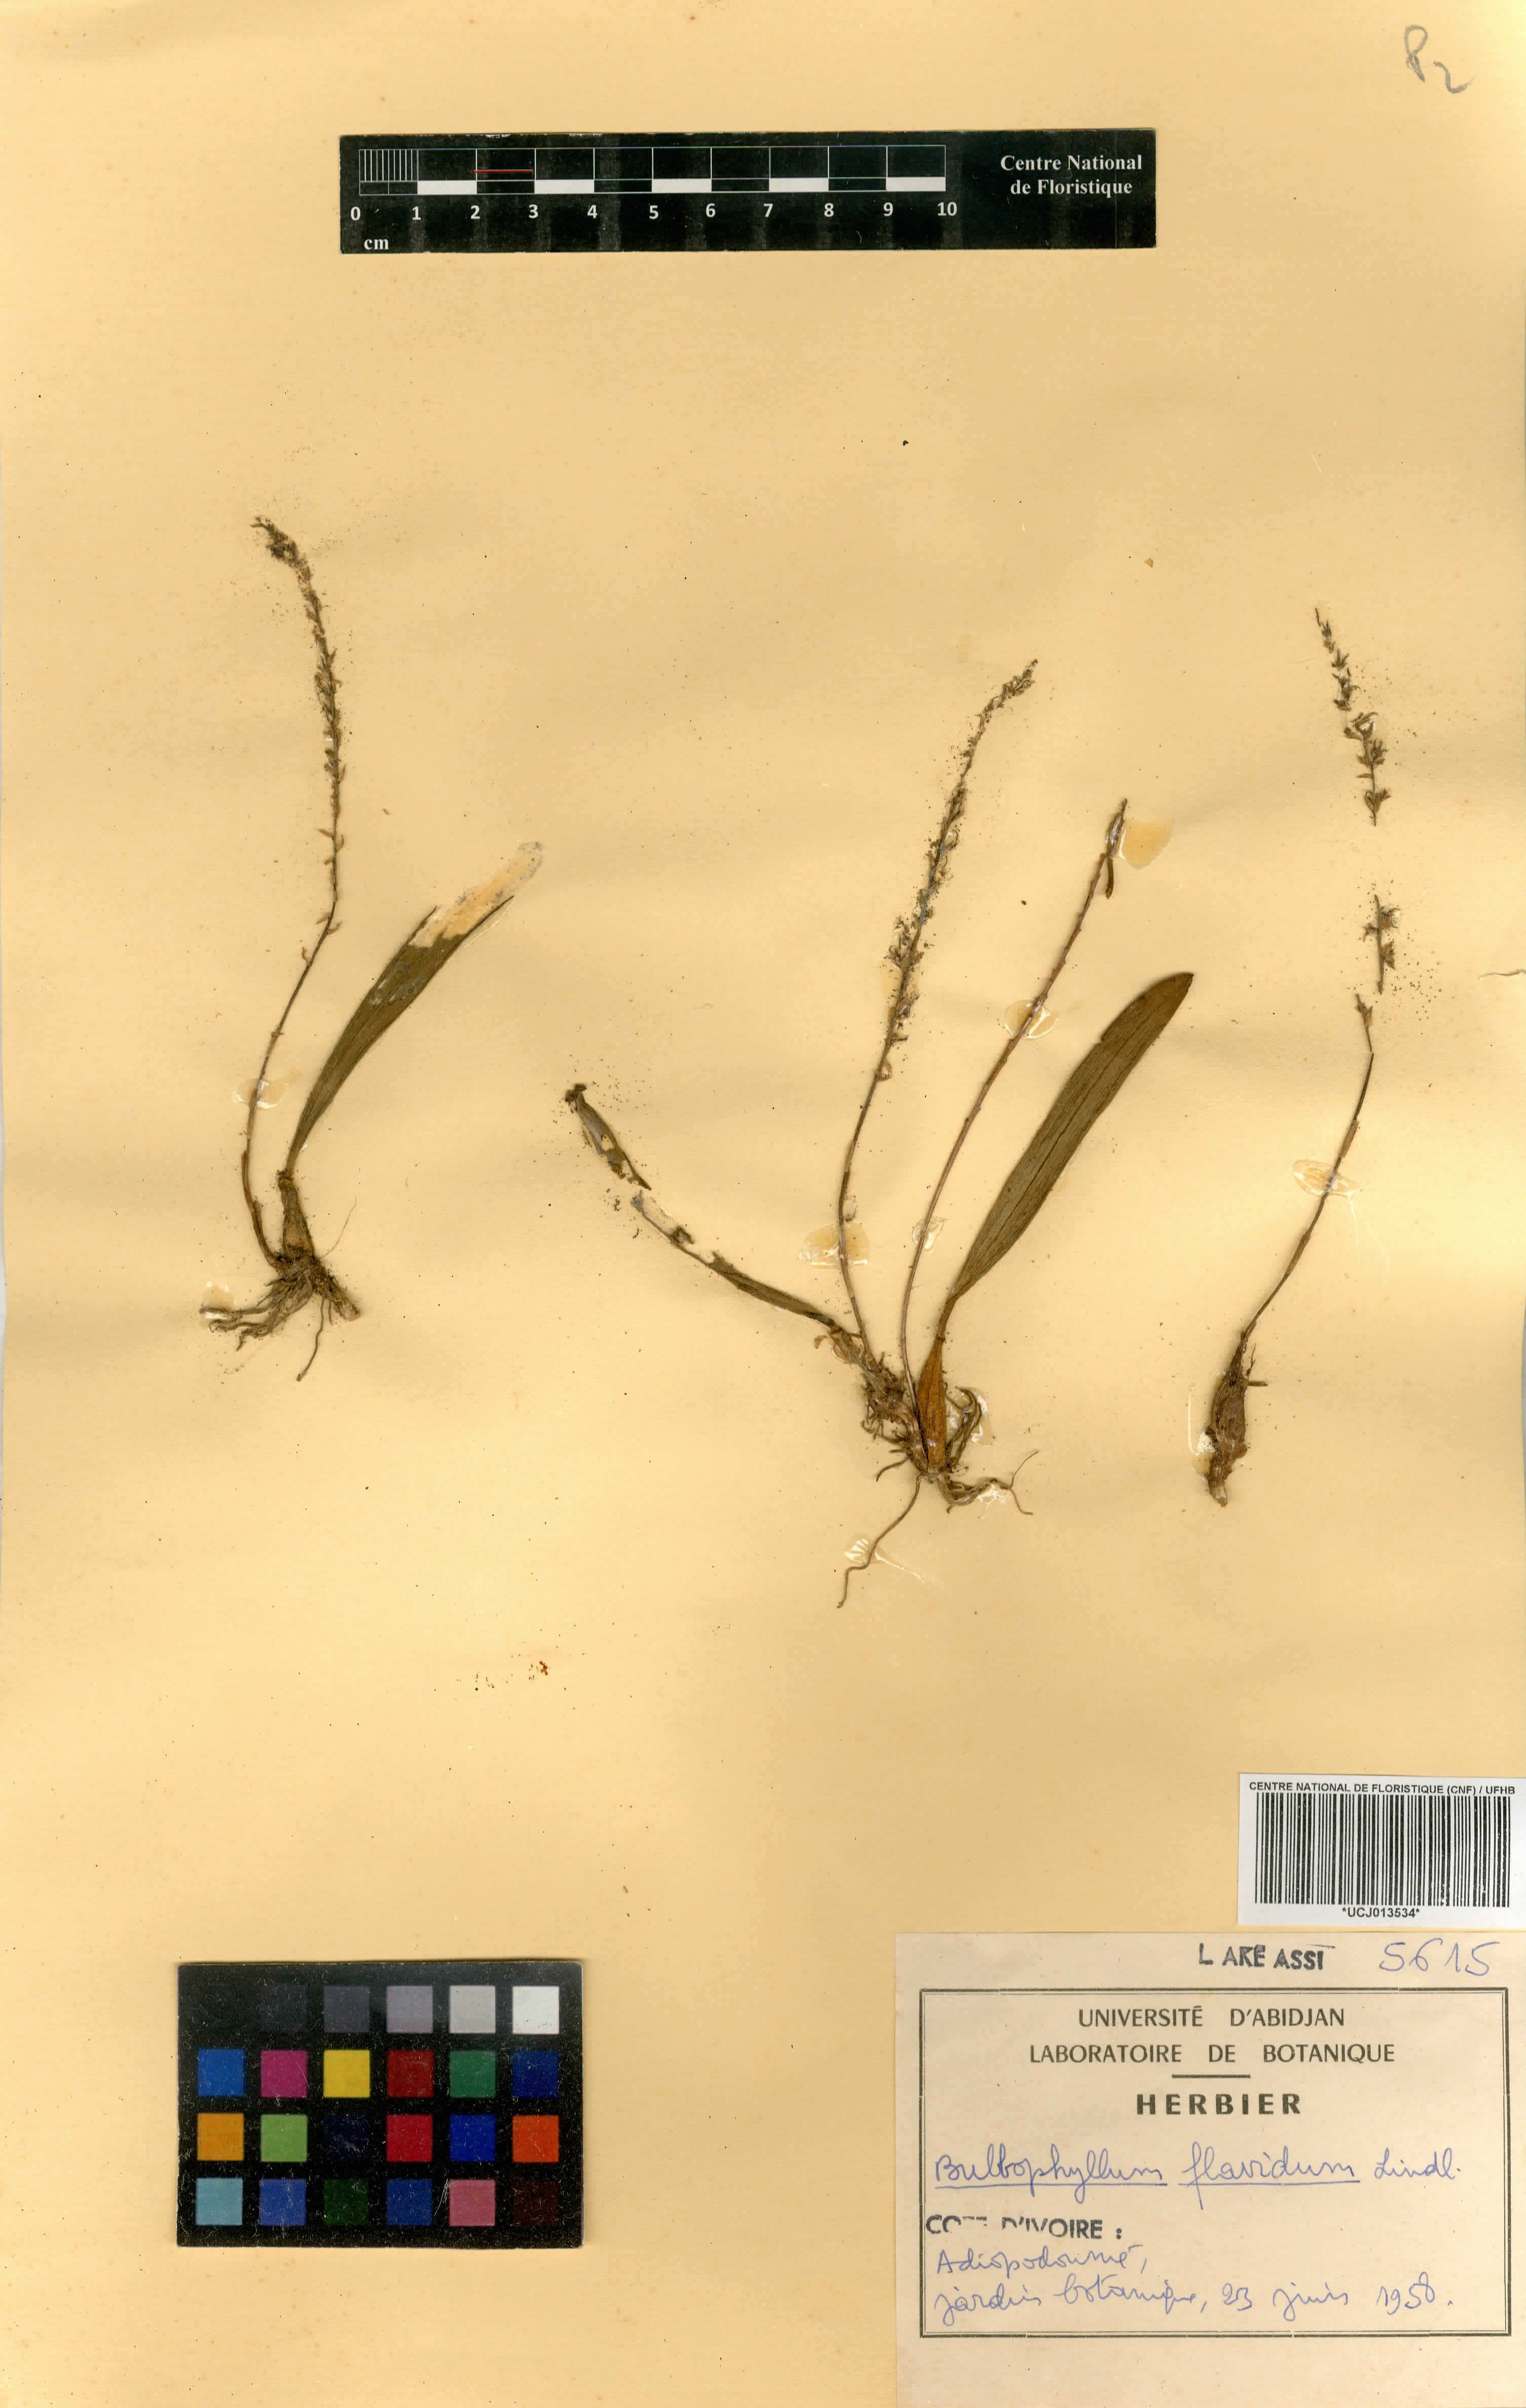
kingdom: Plantae
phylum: Tracheophyta
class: Liliopsida
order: Asparagales
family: Orchidaceae
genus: Bulbophyllum
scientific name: Bulbophyllum pumilum
